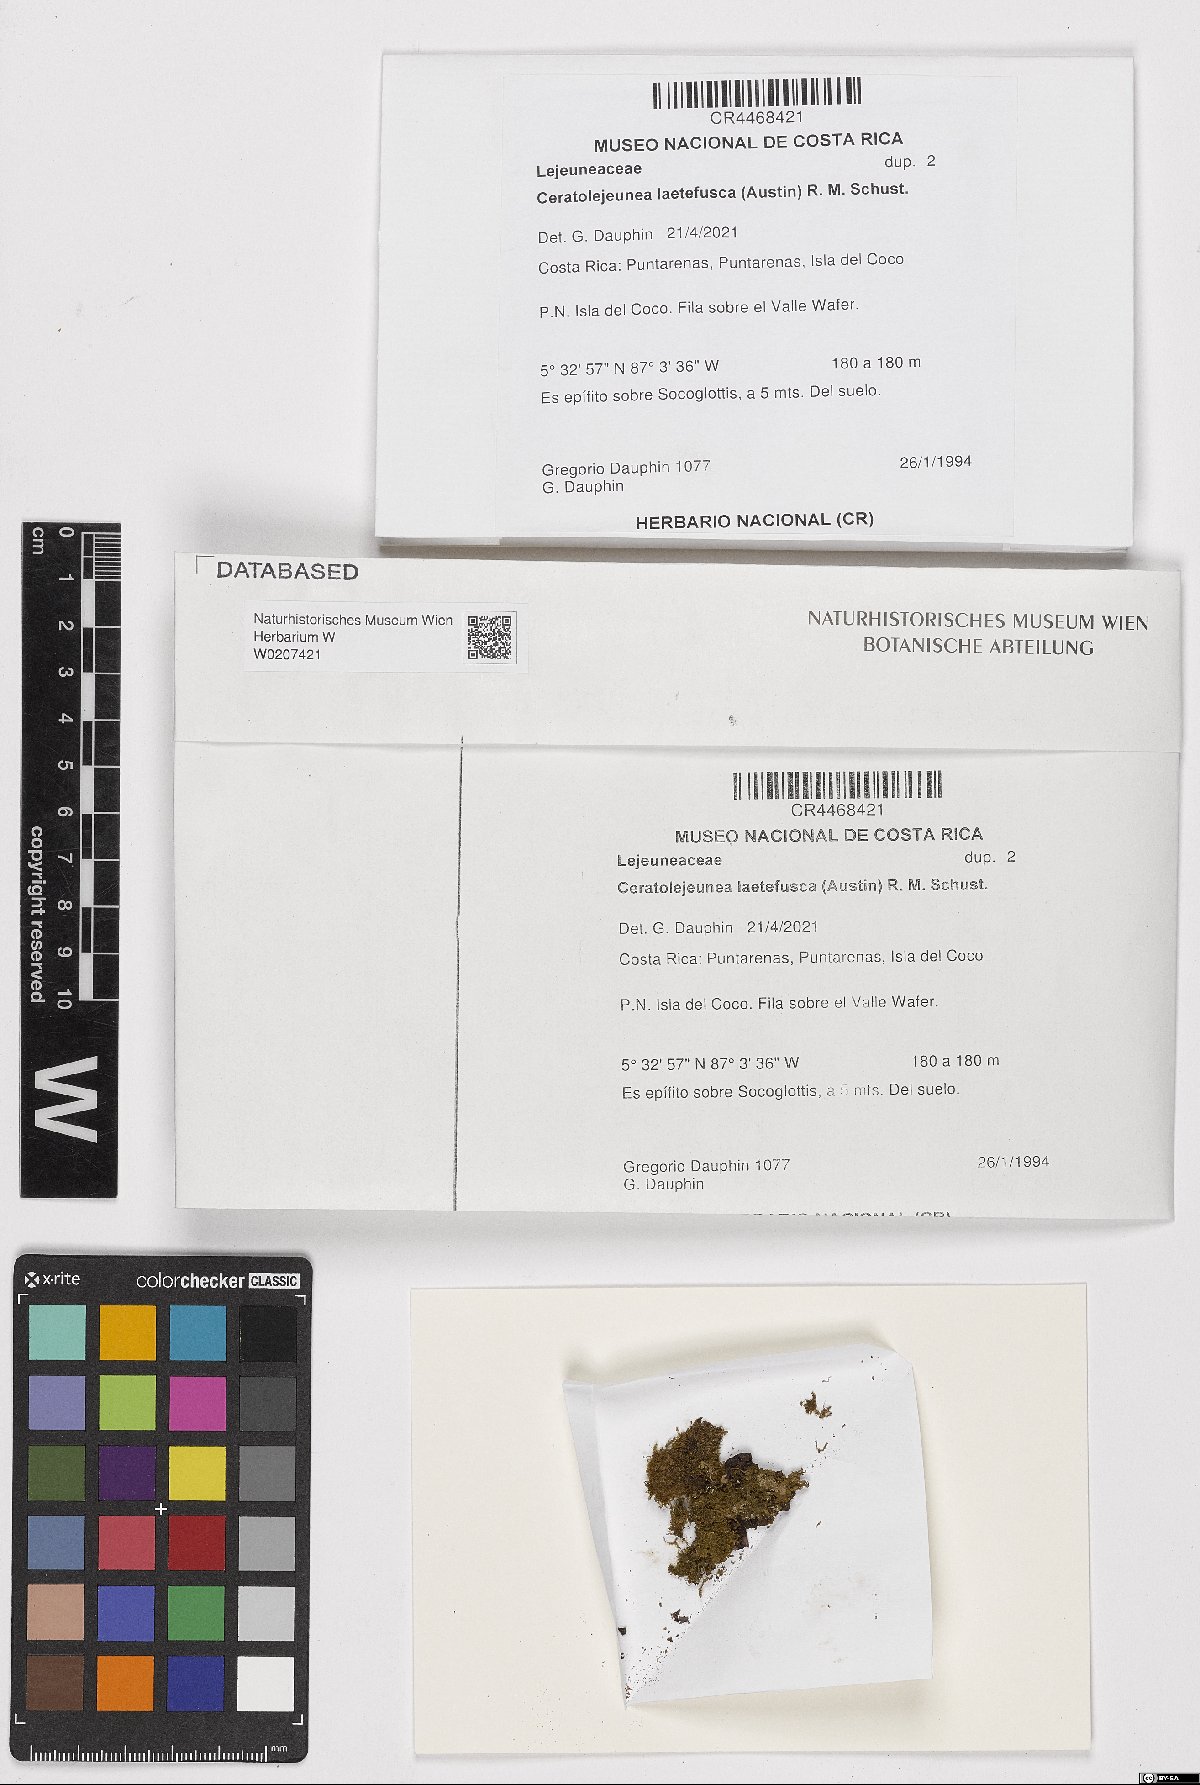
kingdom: Plantae
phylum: Marchantiophyta
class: Jungermanniopsida
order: Porellales
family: Lejeuneaceae
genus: Ceratolejeunea
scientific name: Ceratolejeunea laetefusca
